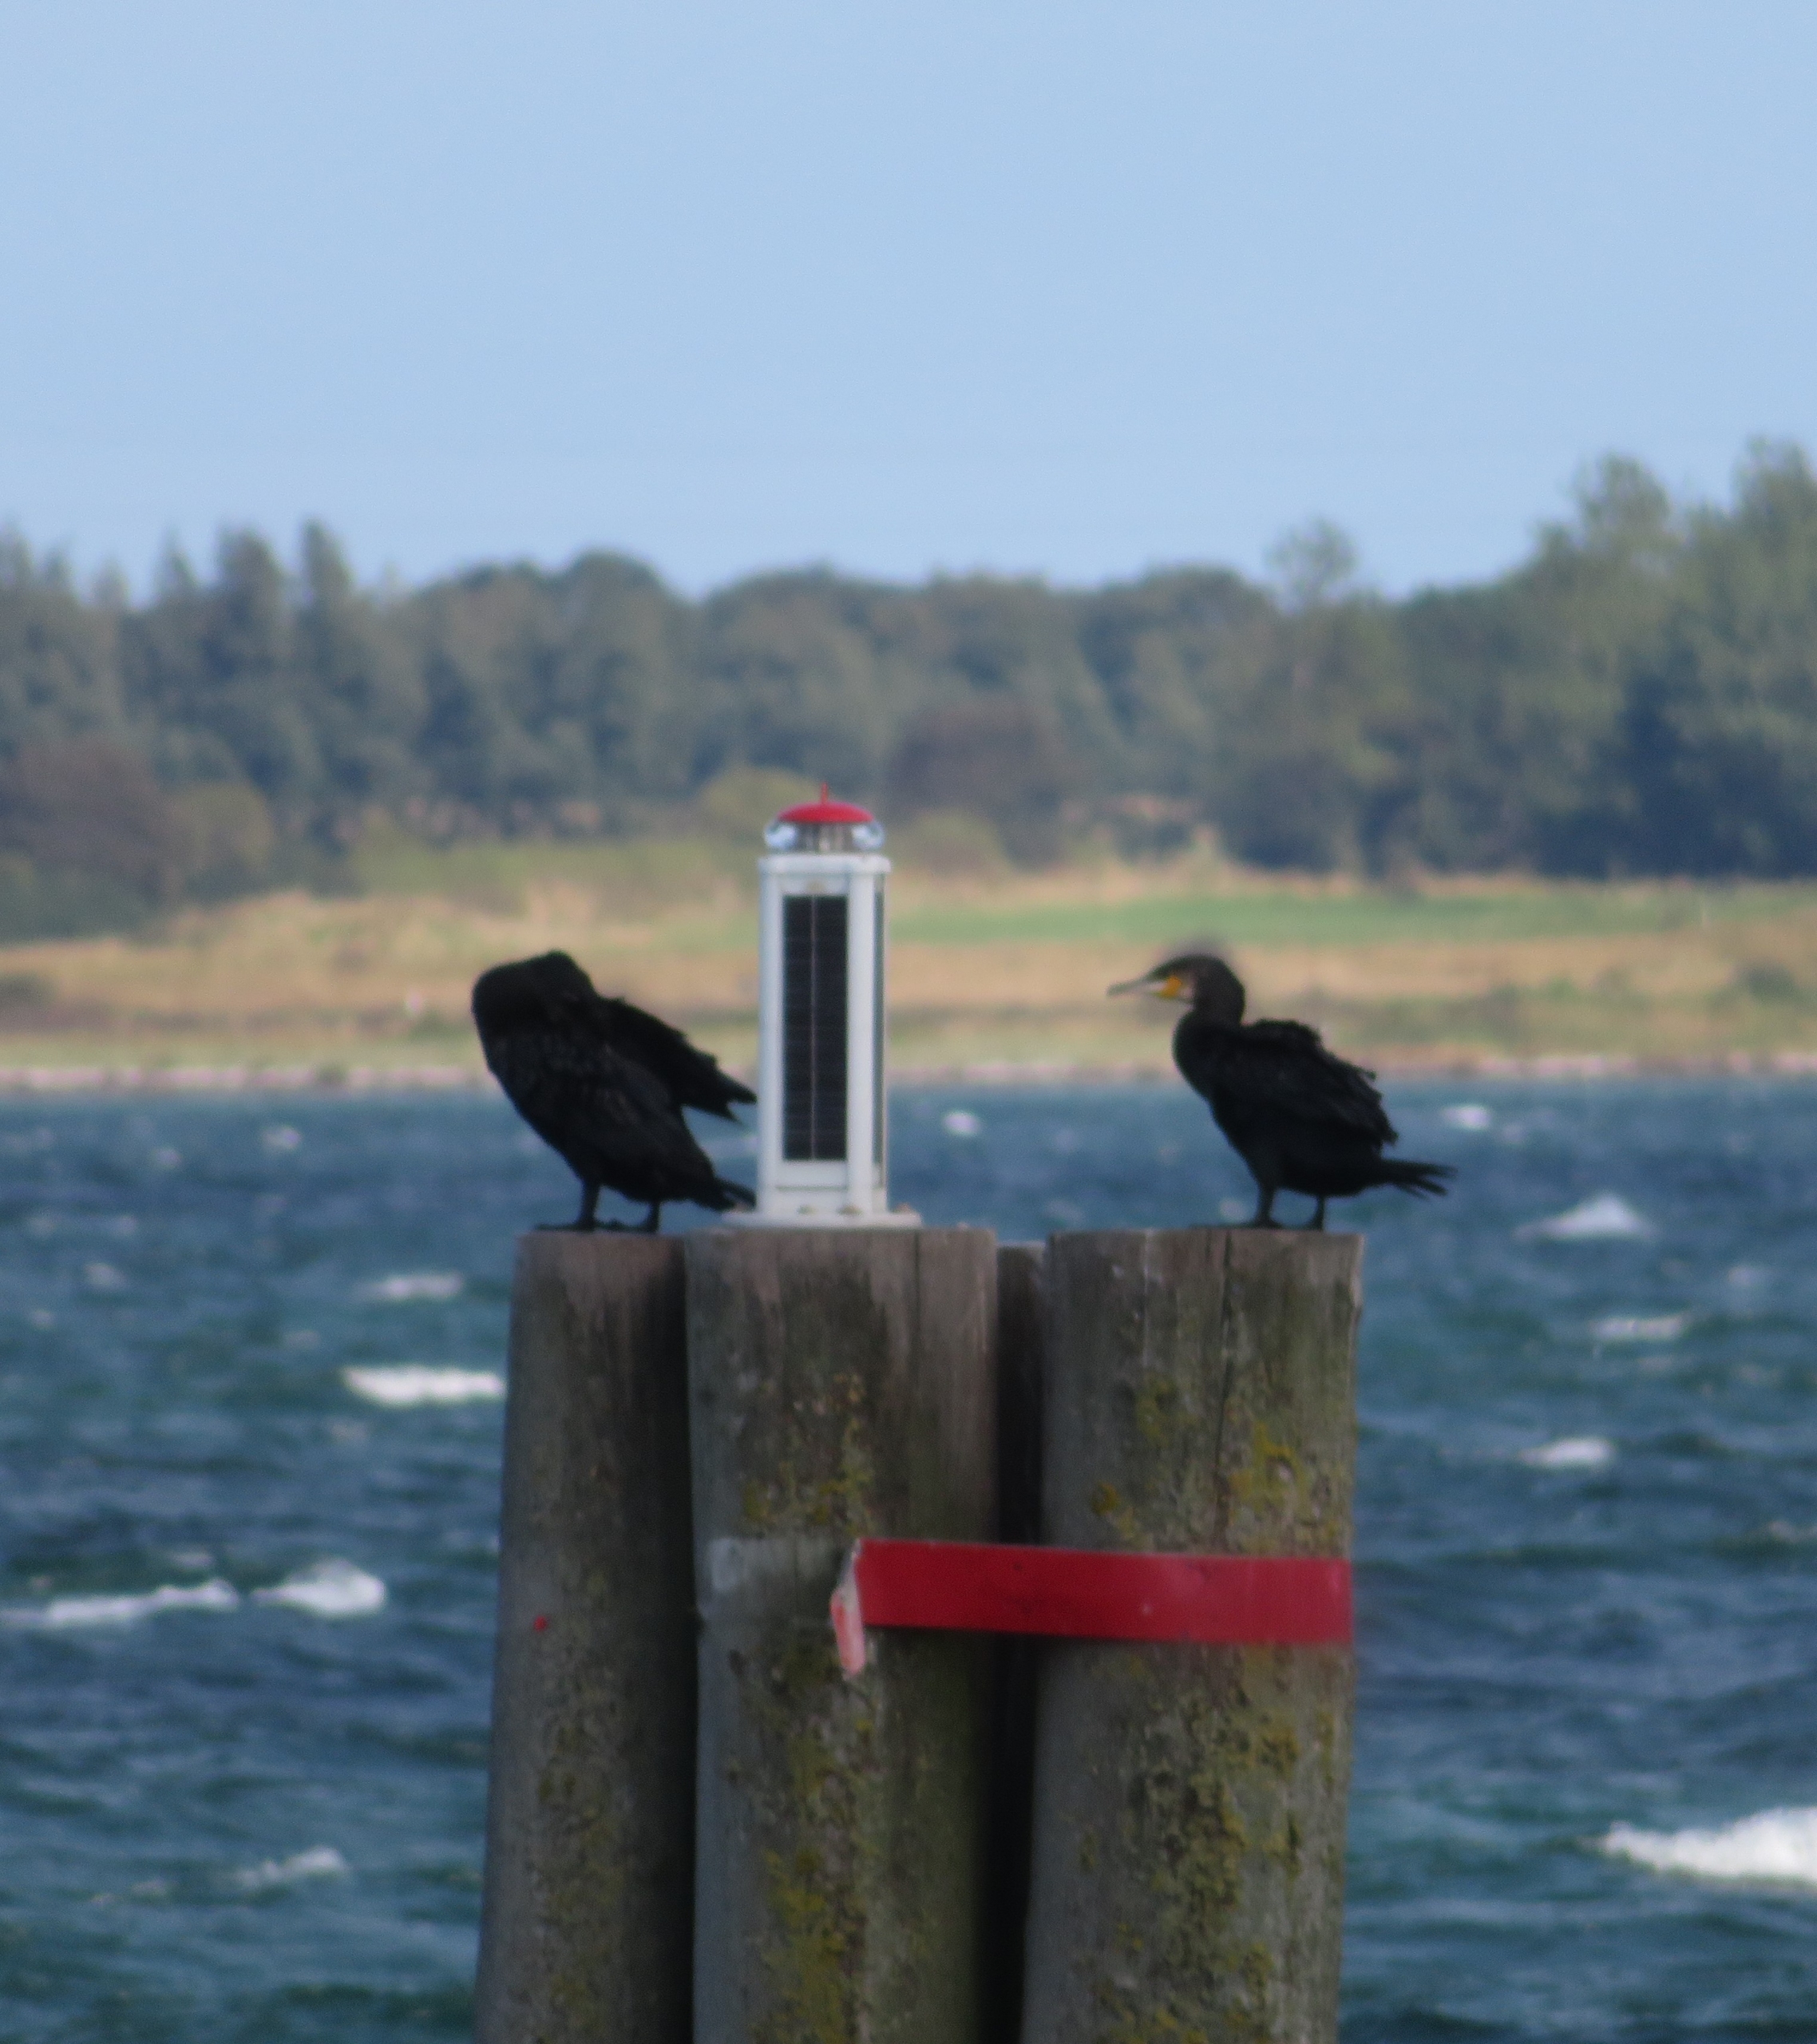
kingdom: Animalia
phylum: Chordata
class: Aves
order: Suliformes
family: Phalacrocoracidae
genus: Phalacrocorax
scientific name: Phalacrocorax carbo
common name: Skarv
